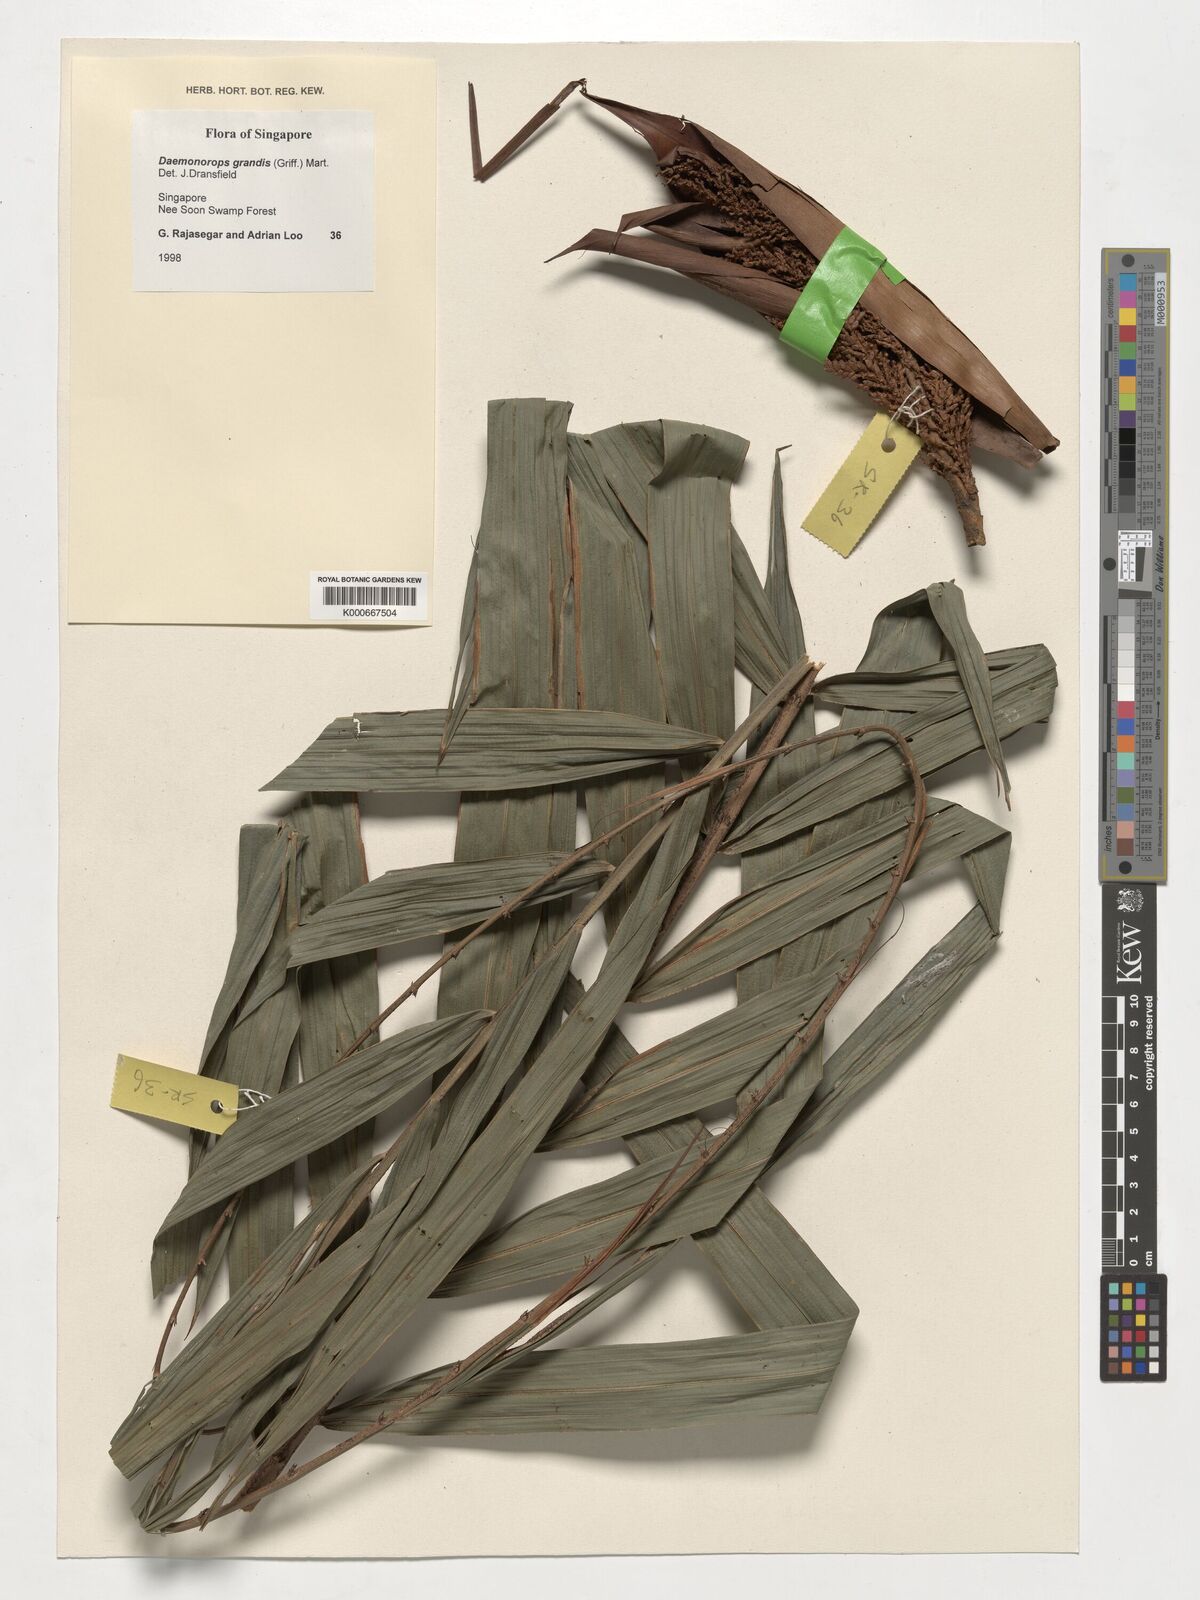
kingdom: Plantae
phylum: Tracheophyta
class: Liliopsida
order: Arecales
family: Arecaceae
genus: Calamus
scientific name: Calamus melanochaetes
